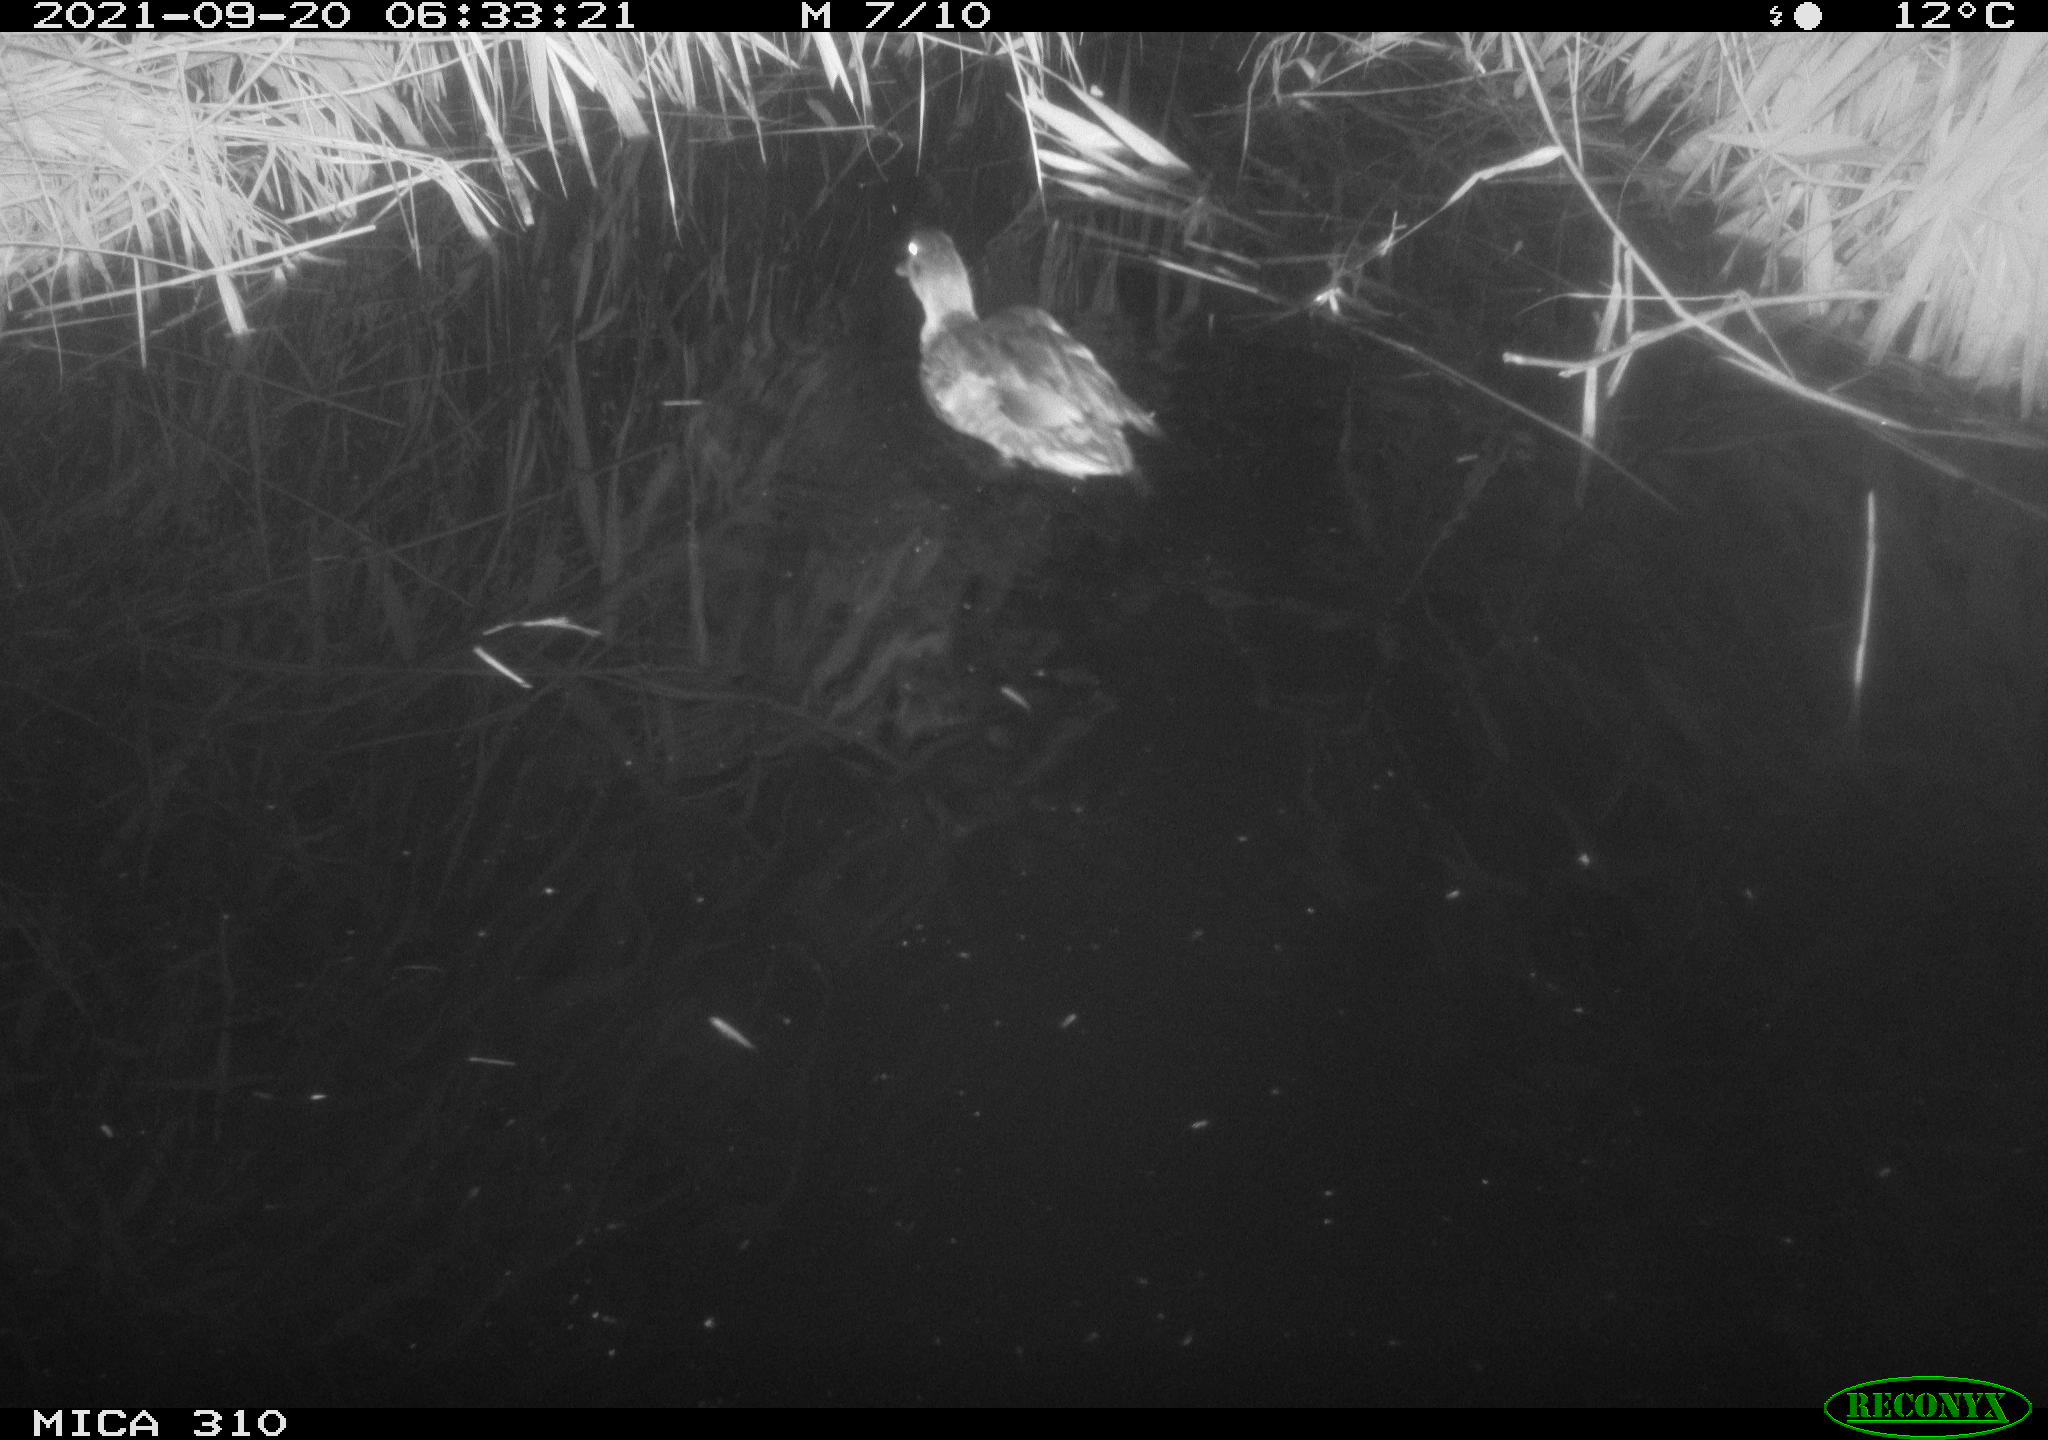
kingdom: Animalia
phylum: Chordata
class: Aves
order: Anseriformes
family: Anatidae
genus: Mareca
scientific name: Mareca strepera
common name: Gadwall
